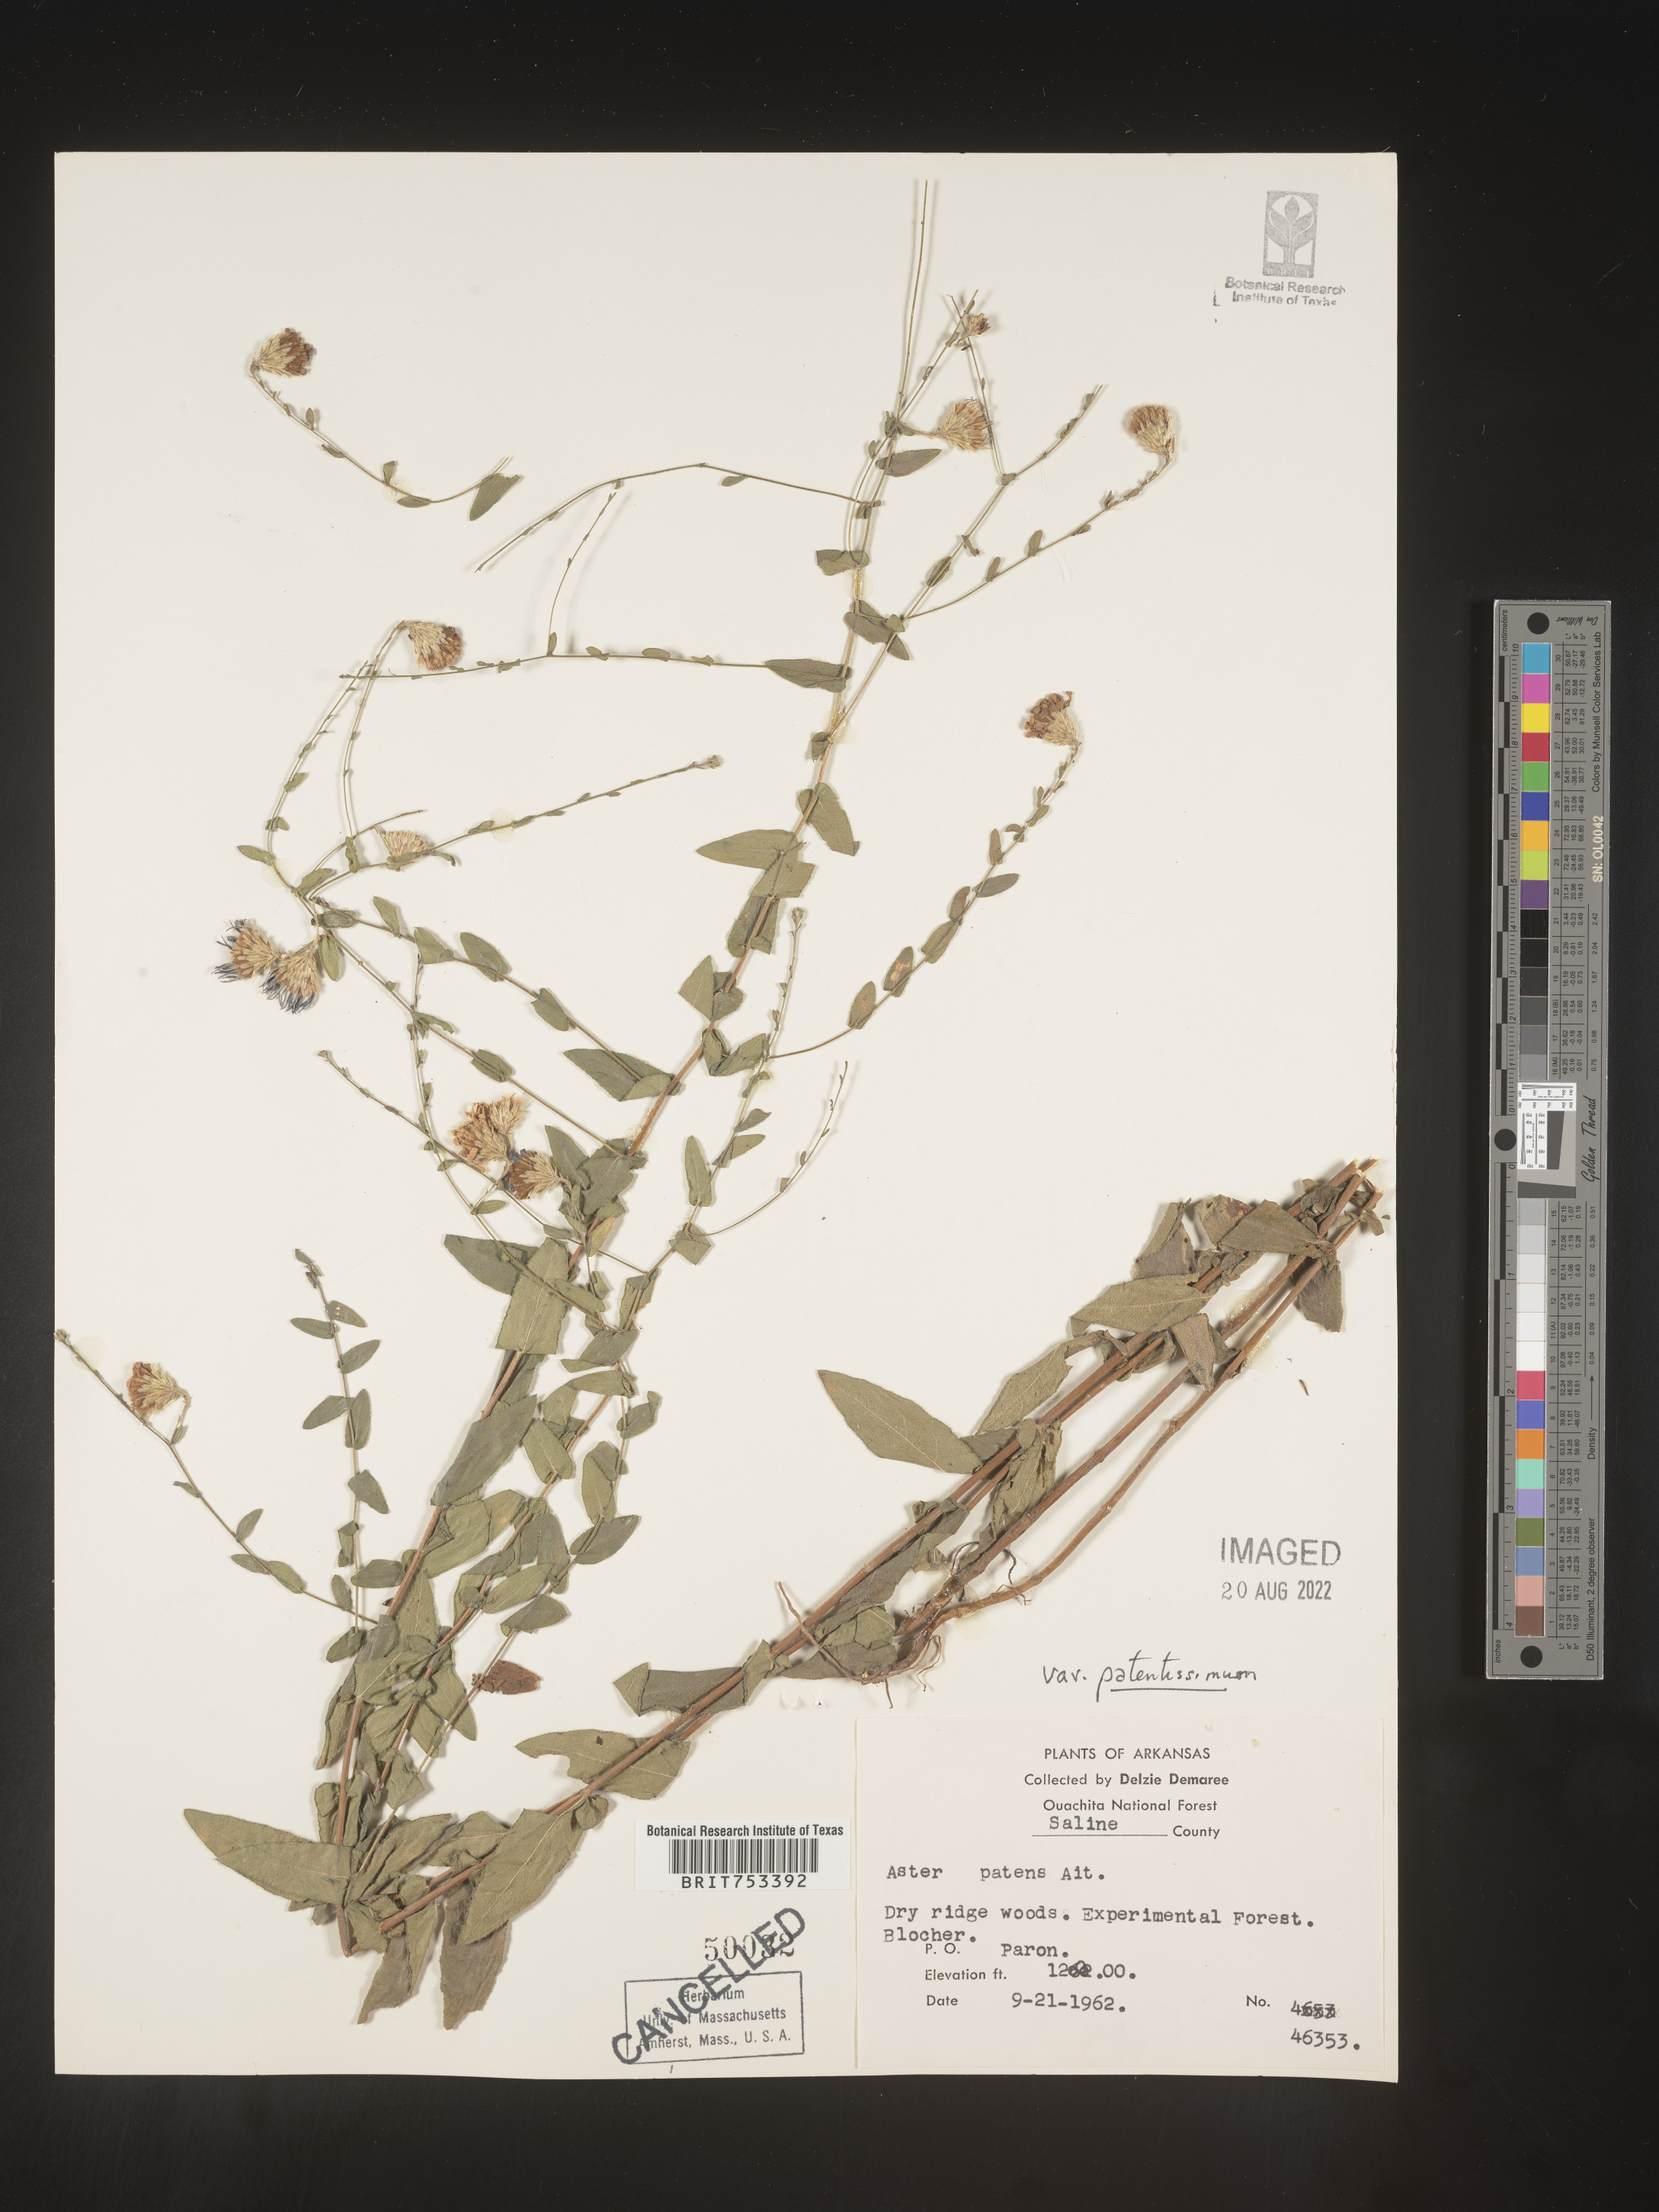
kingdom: Plantae
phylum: Tracheophyta
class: Magnoliopsida
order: Asterales
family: Asteraceae
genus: Symphyotrichum
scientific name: Symphyotrichum patens
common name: Late purple aster
